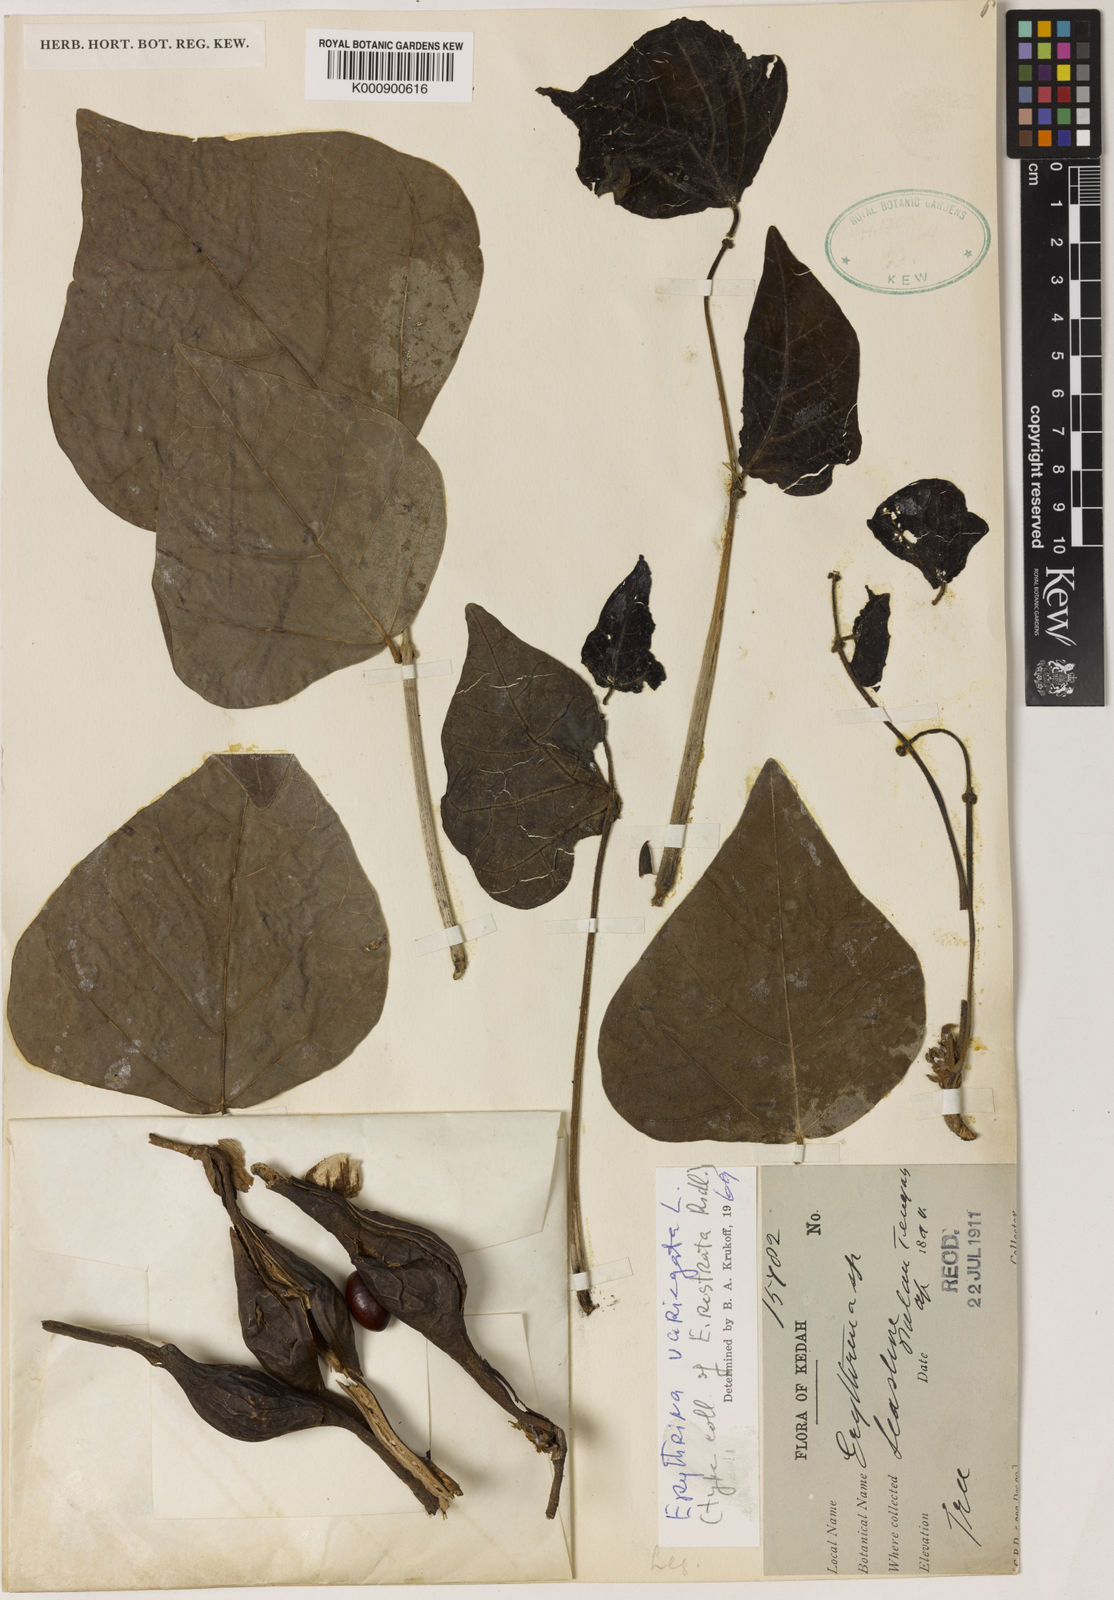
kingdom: Plantae
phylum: Tracheophyta
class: Magnoliopsida
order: Fabales
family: Fabaceae
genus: Erythrina
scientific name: Erythrina variegata
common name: Indian coral tree
